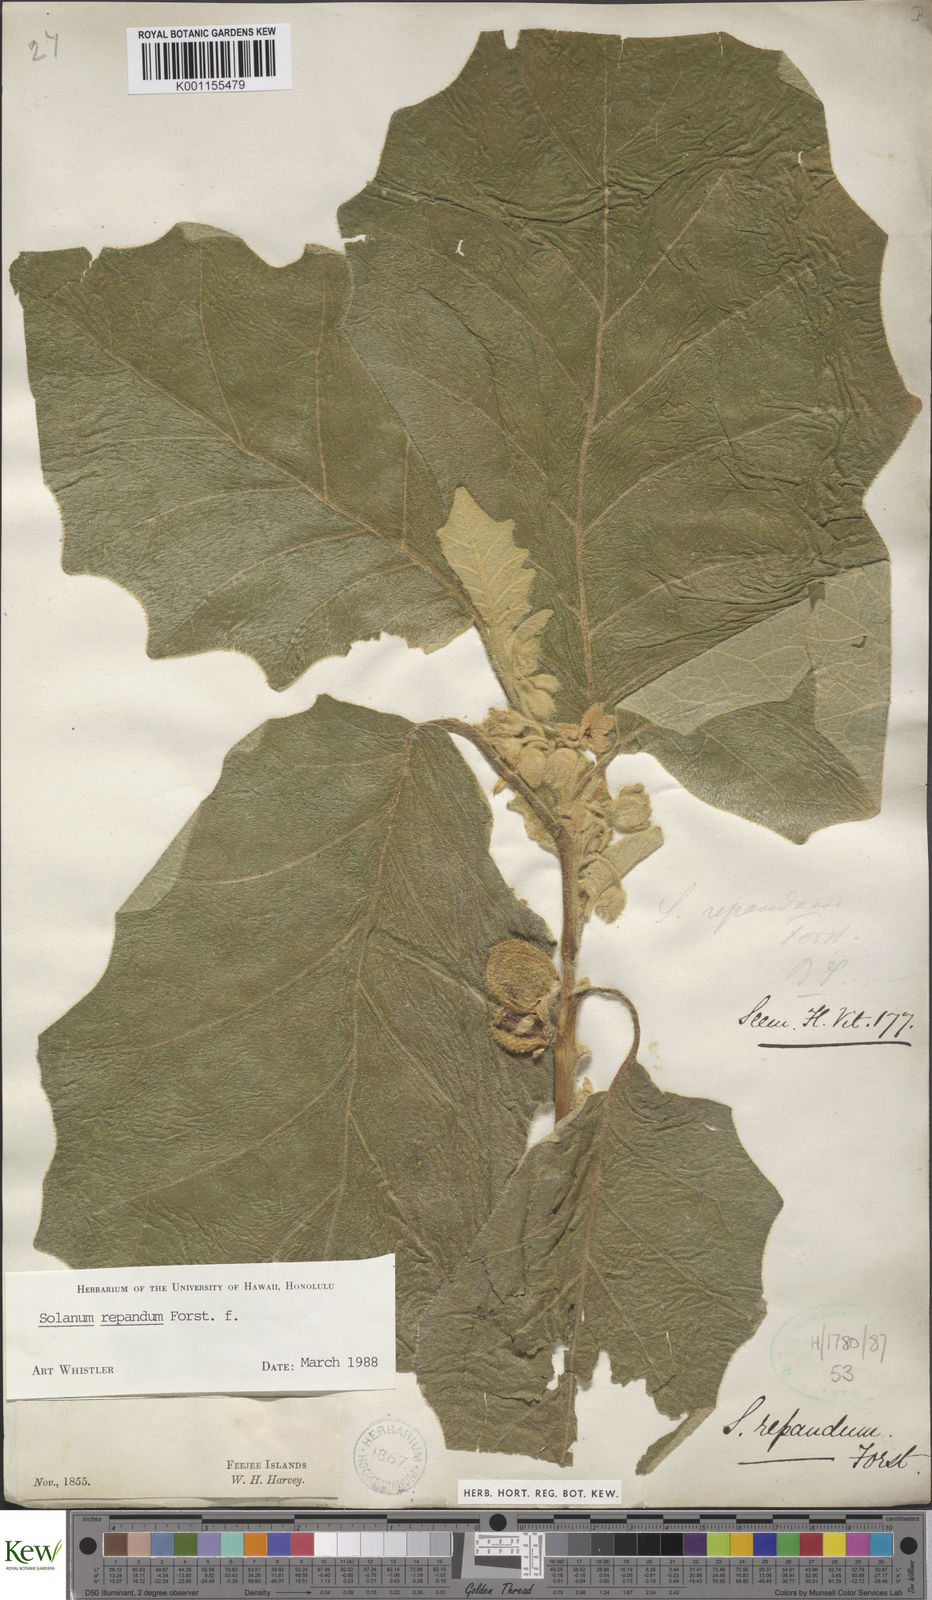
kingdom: Plantae
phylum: Tracheophyta
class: Magnoliopsida
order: Solanales
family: Solanaceae
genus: Solanum
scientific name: Solanum repandum
